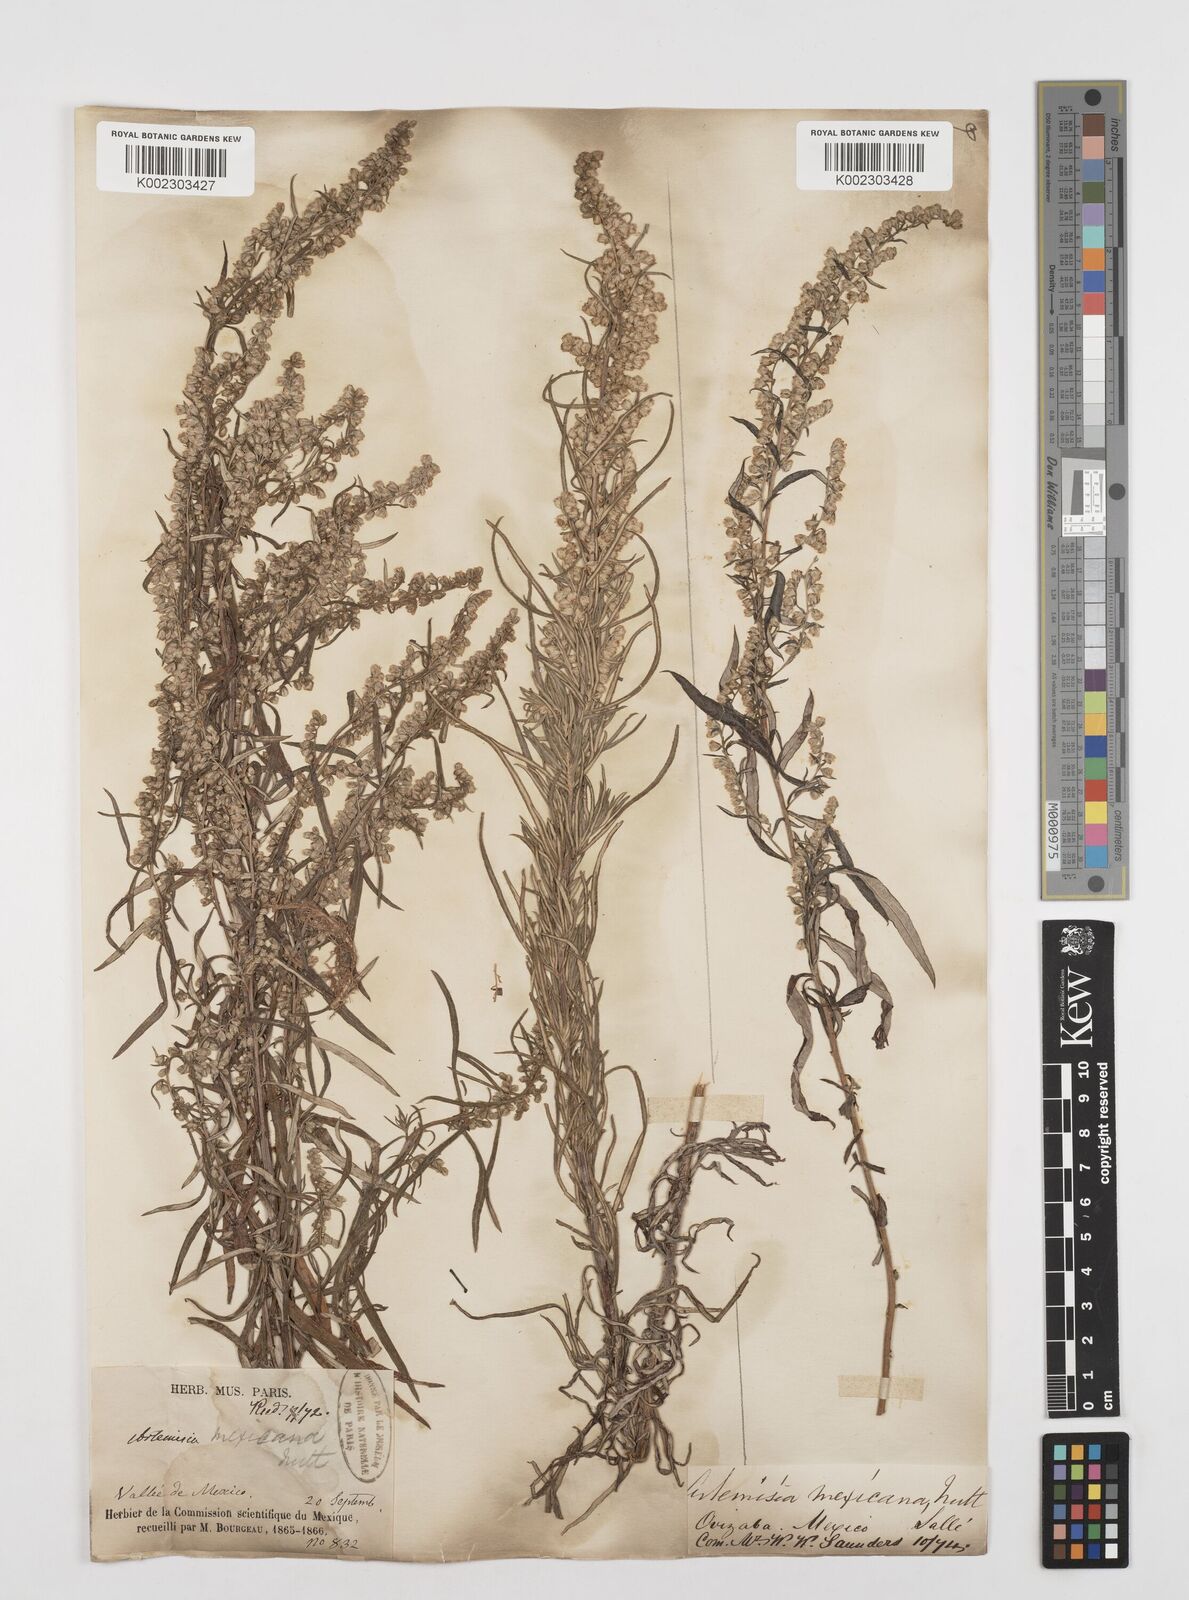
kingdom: Plantae
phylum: Tracheophyta
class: Magnoliopsida
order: Asterales
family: Asteraceae
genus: Artemisia
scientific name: Artemisia ludoviciana
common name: Western mugwort
